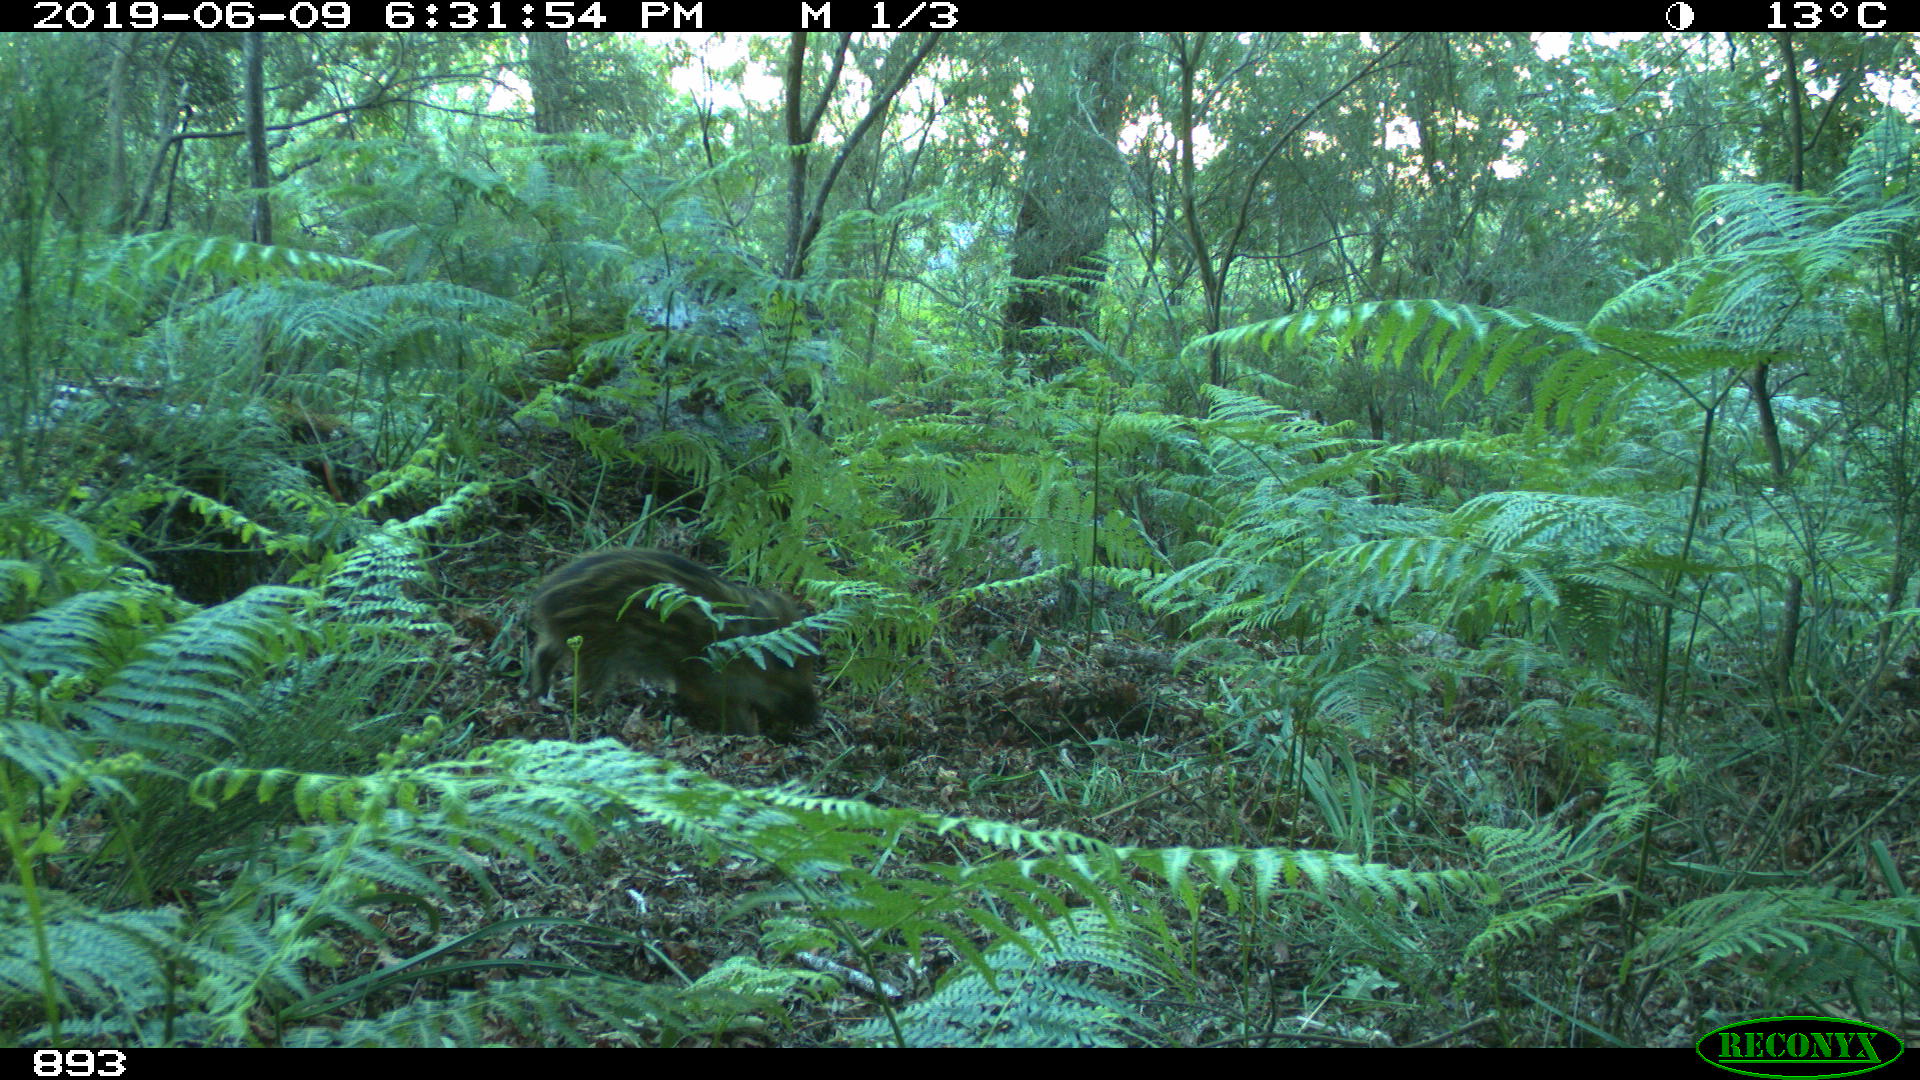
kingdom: Animalia
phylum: Chordata
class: Mammalia
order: Artiodactyla
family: Suidae
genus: Sus
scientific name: Sus scrofa
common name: Wild boar
